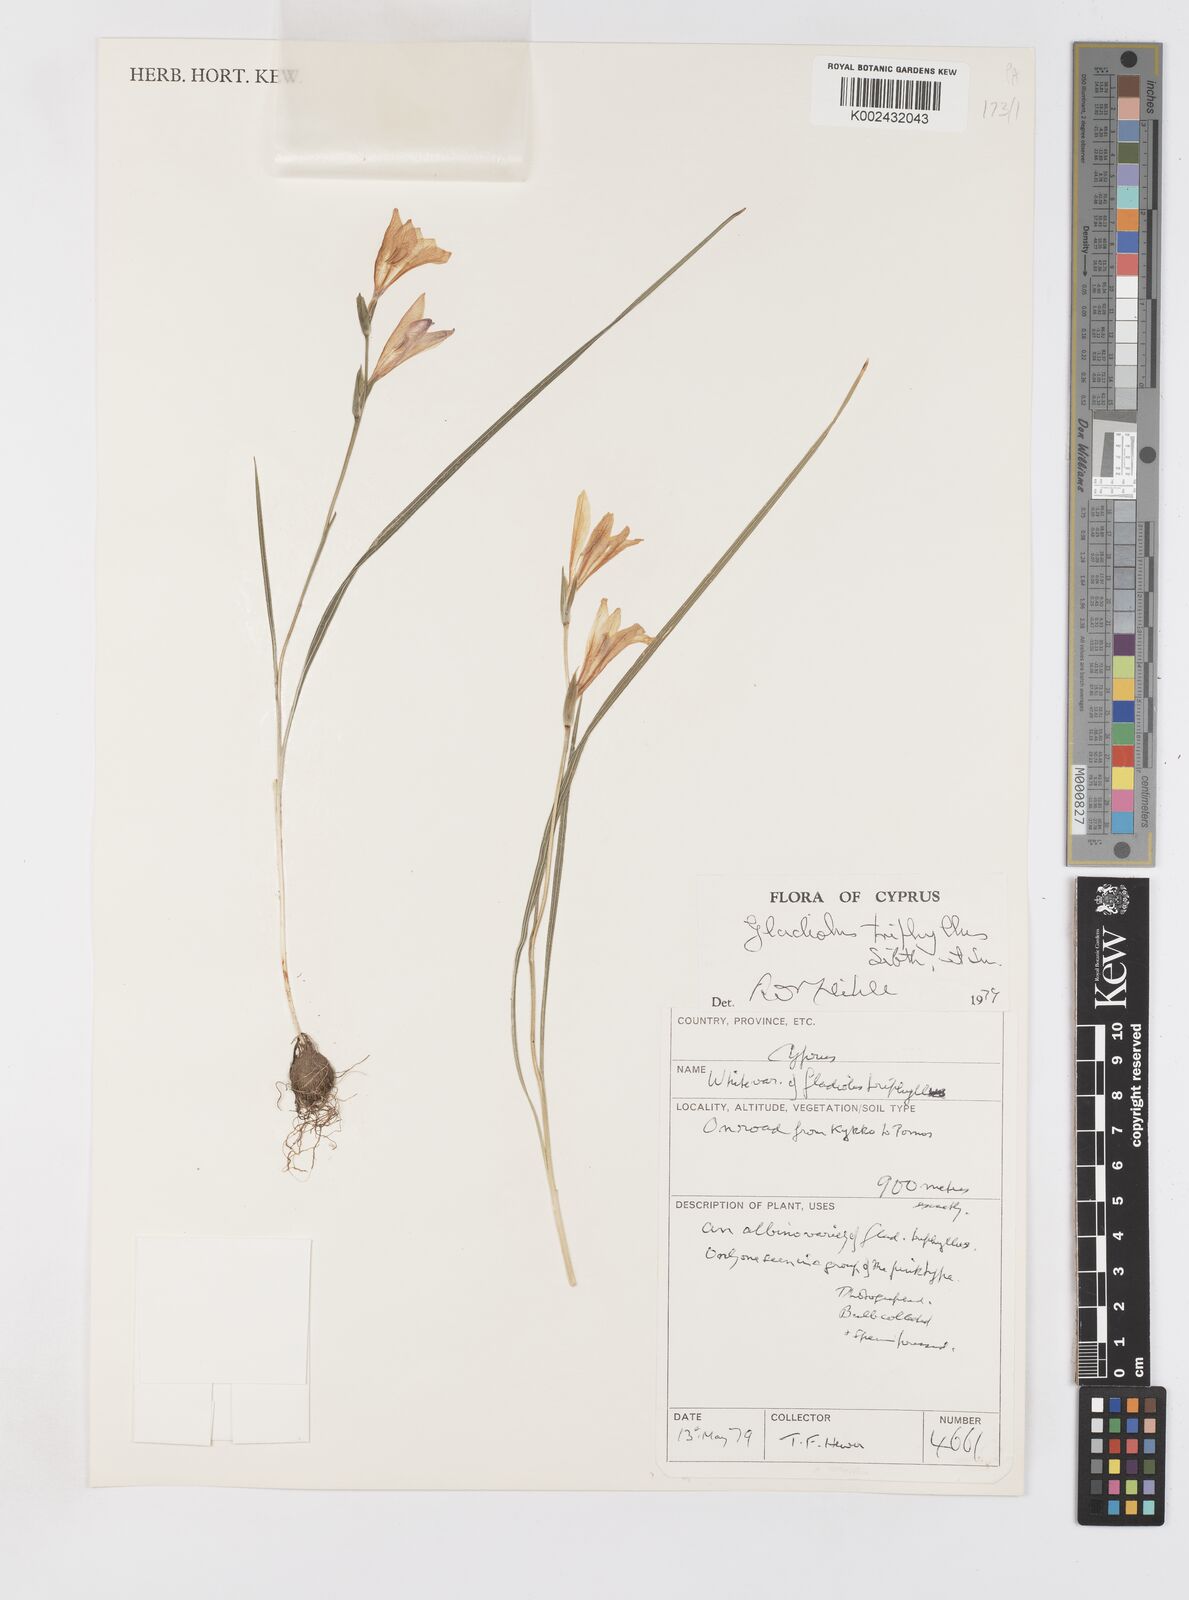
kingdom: Plantae
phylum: Tracheophyta
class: Liliopsida
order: Asparagales
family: Iridaceae
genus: Gladiolus
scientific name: Gladiolus triphyllus
